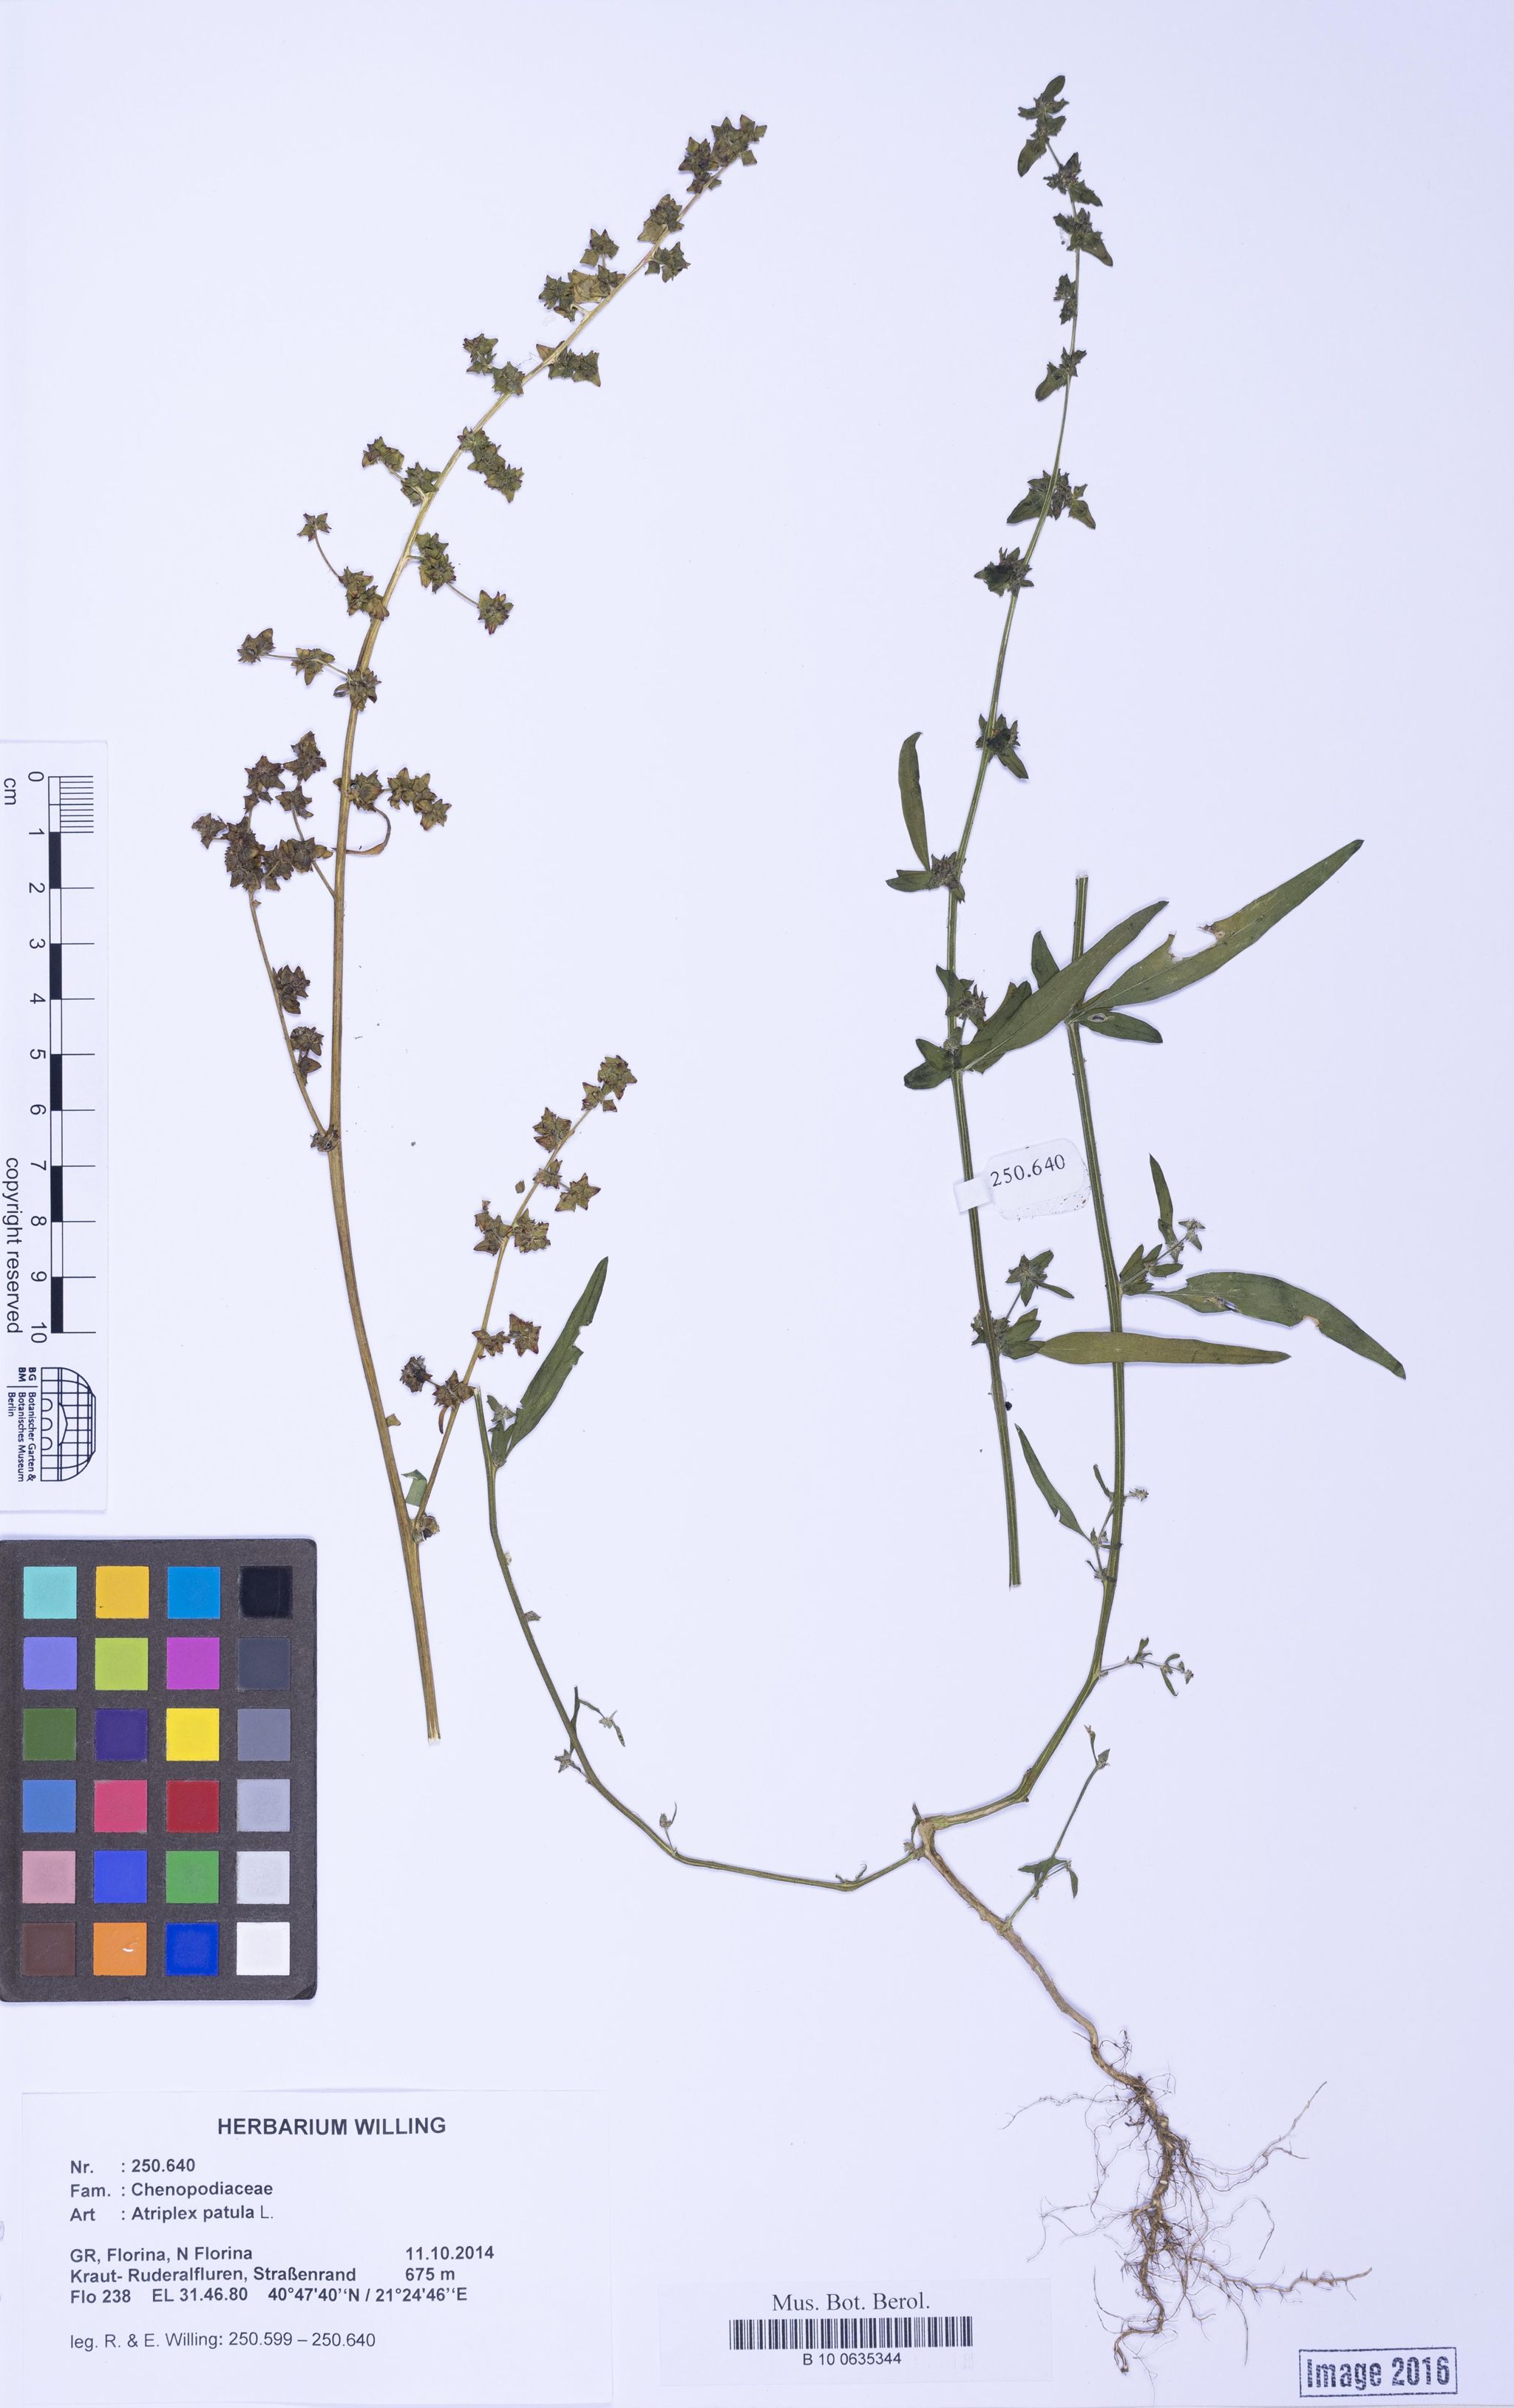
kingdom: Plantae
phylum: Tracheophyta
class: Magnoliopsida
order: Caryophyllales
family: Amaranthaceae
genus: Atriplex
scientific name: Atriplex patula
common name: Common orache
